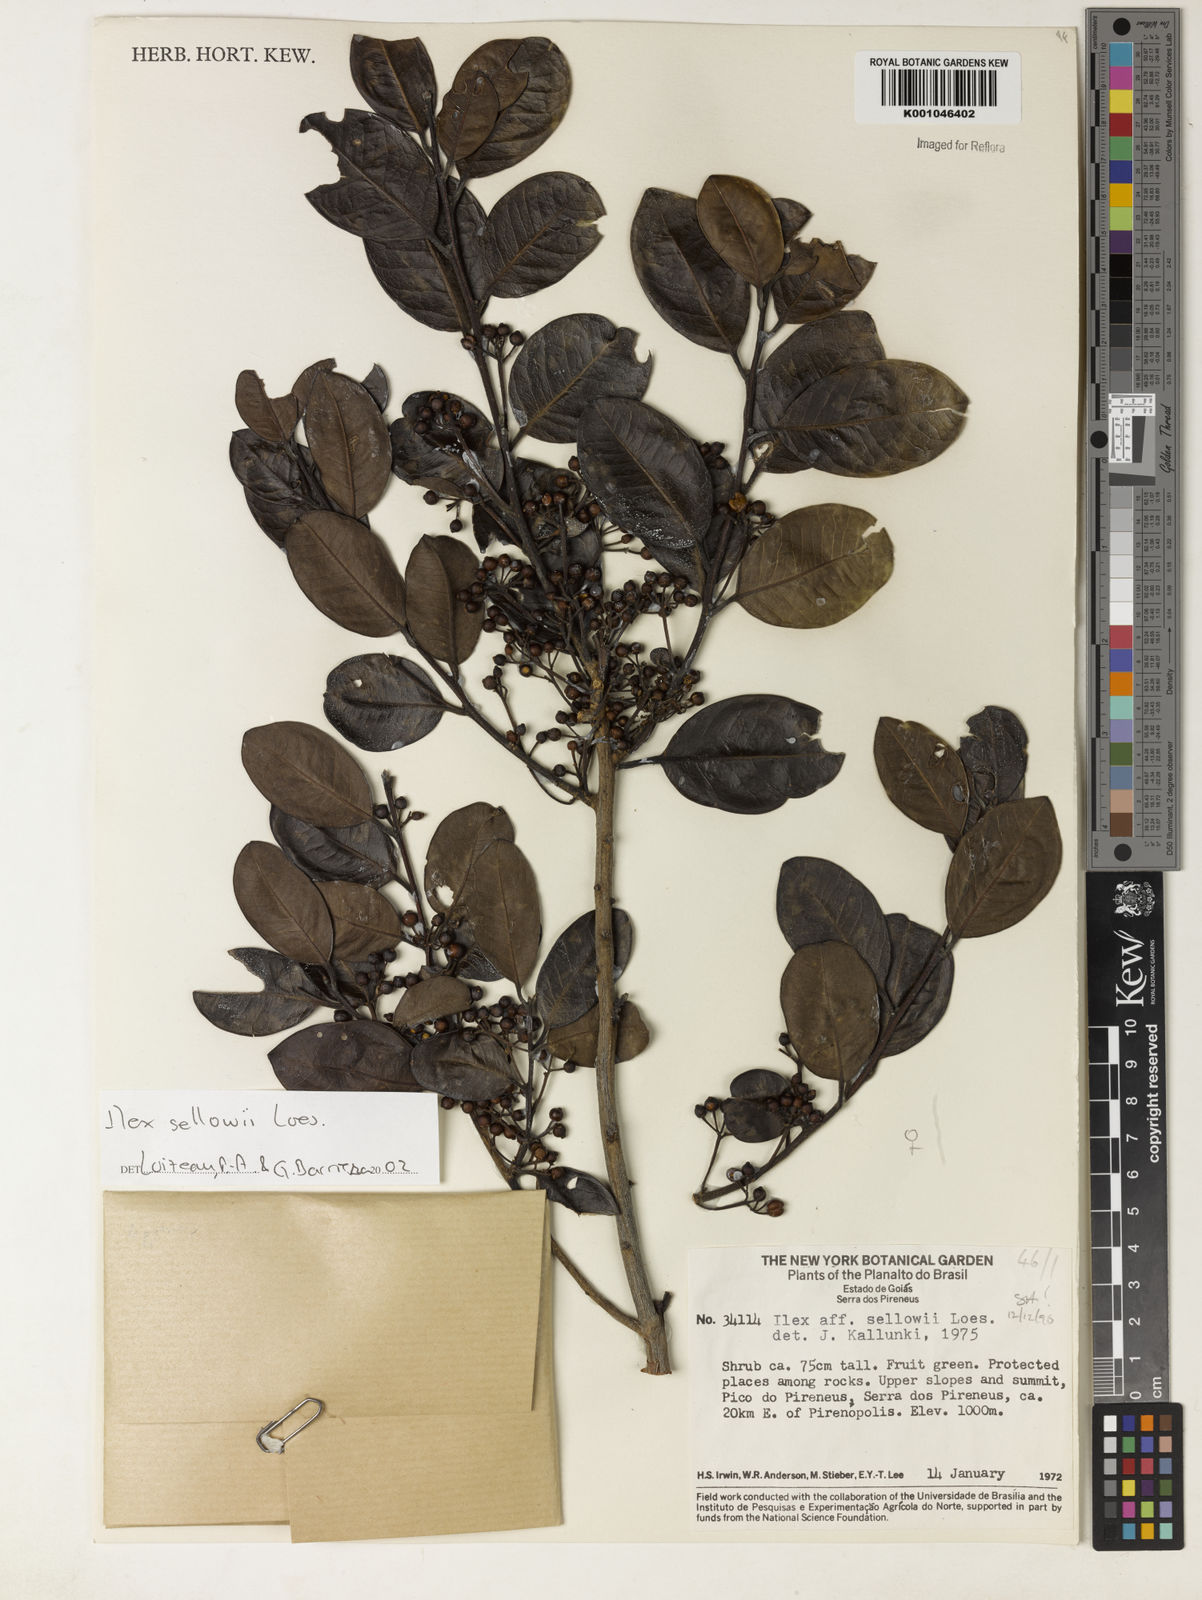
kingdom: Plantae
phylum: Tracheophyta
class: Magnoliopsida
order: Aquifoliales
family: Aquifoliaceae
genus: Ilex
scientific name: Ilex
